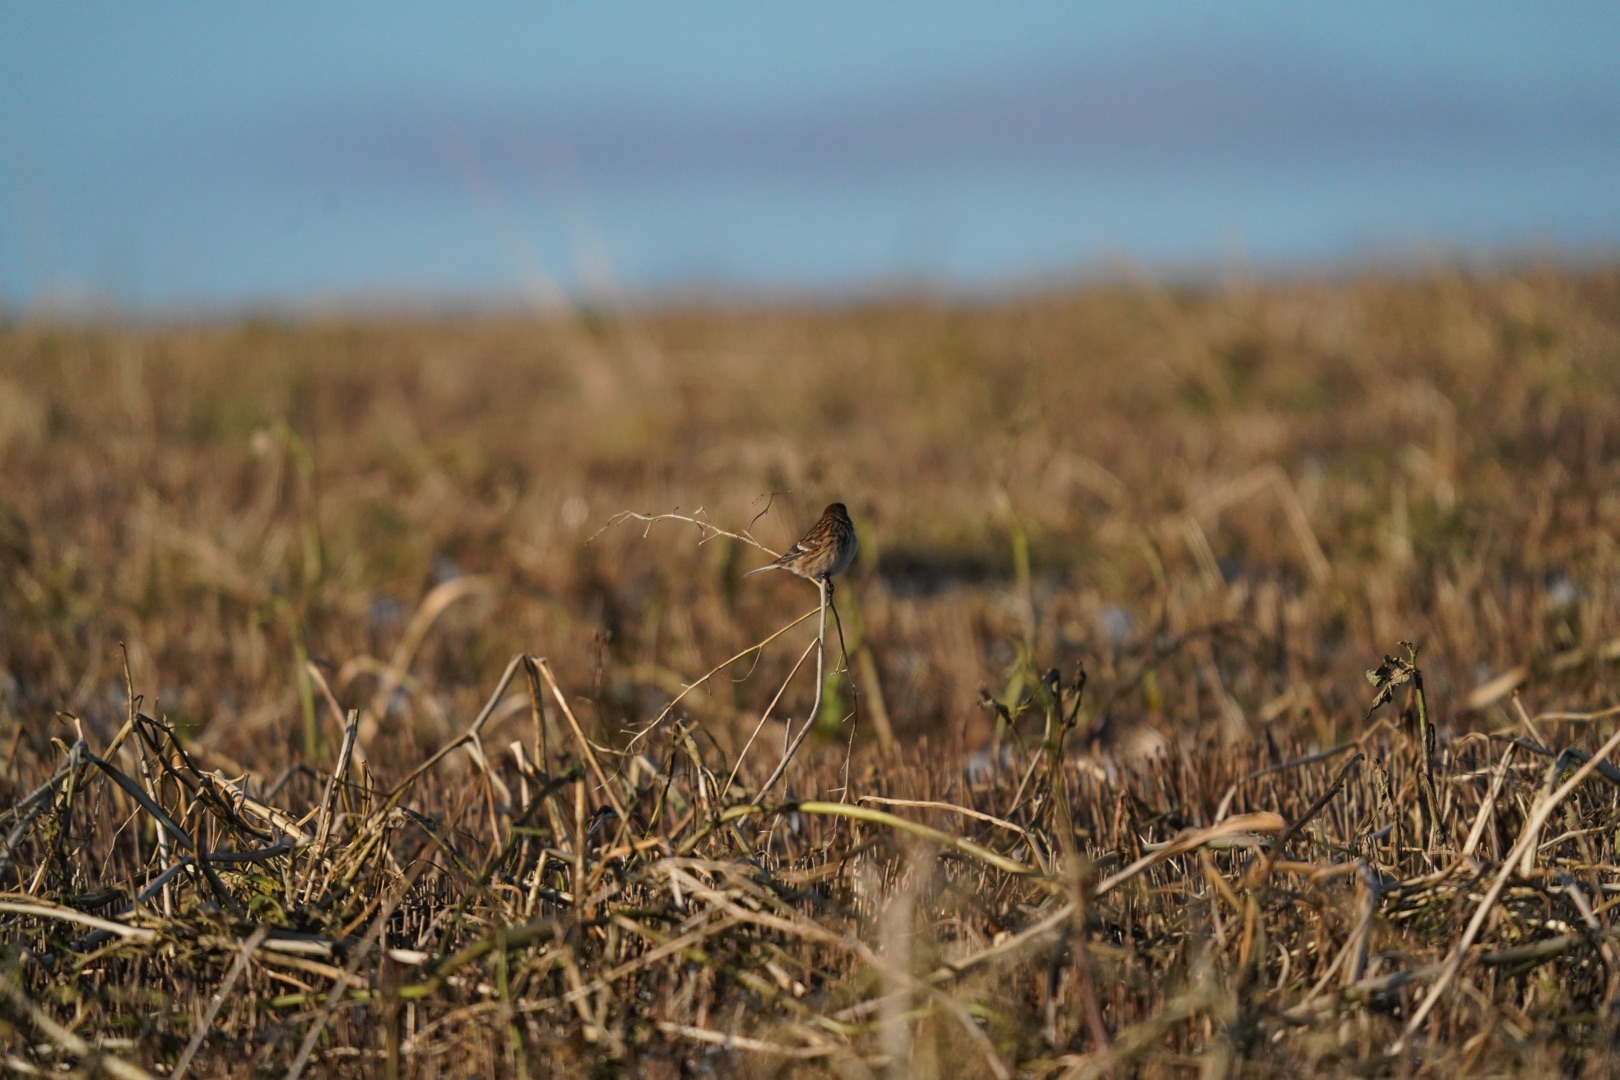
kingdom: Animalia
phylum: Chordata
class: Aves
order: Passeriformes
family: Fringillidae
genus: Linaria
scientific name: Linaria flavirostris
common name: Bjergirisk
